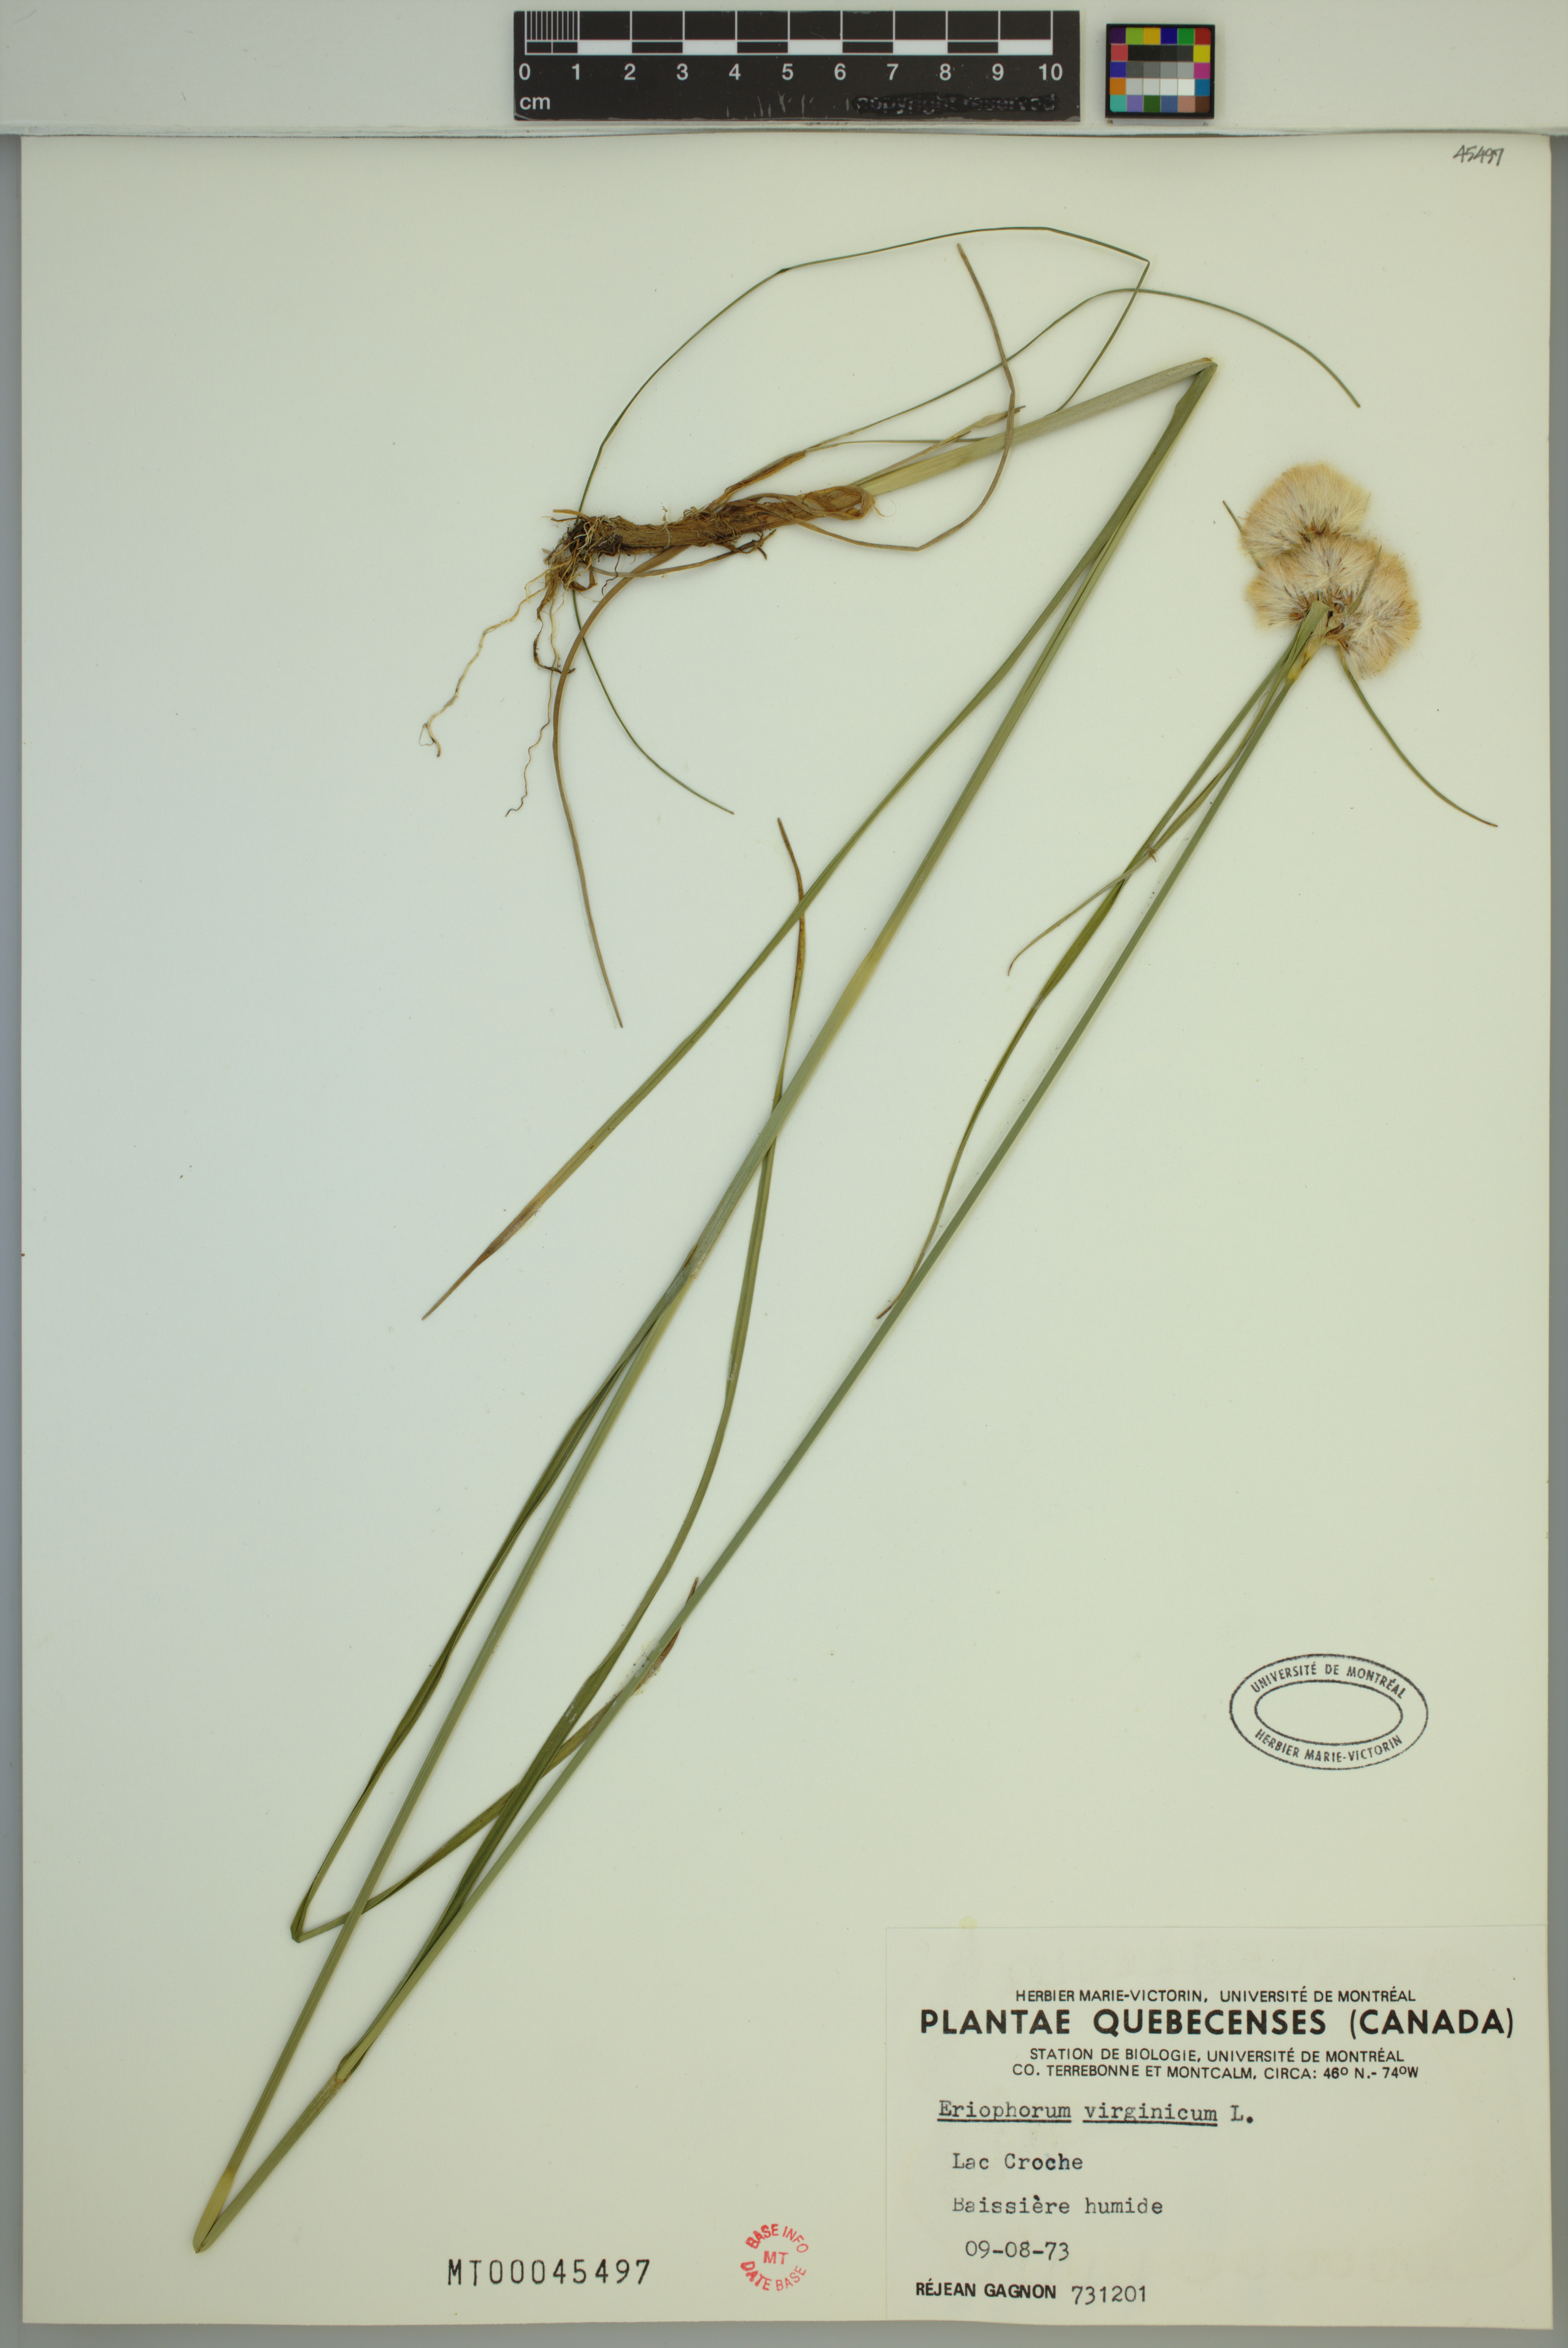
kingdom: Plantae
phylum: Tracheophyta
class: Liliopsida
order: Poales
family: Cyperaceae
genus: Eriophorum
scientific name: Eriophorum virginicum
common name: Tawny cottongrass
